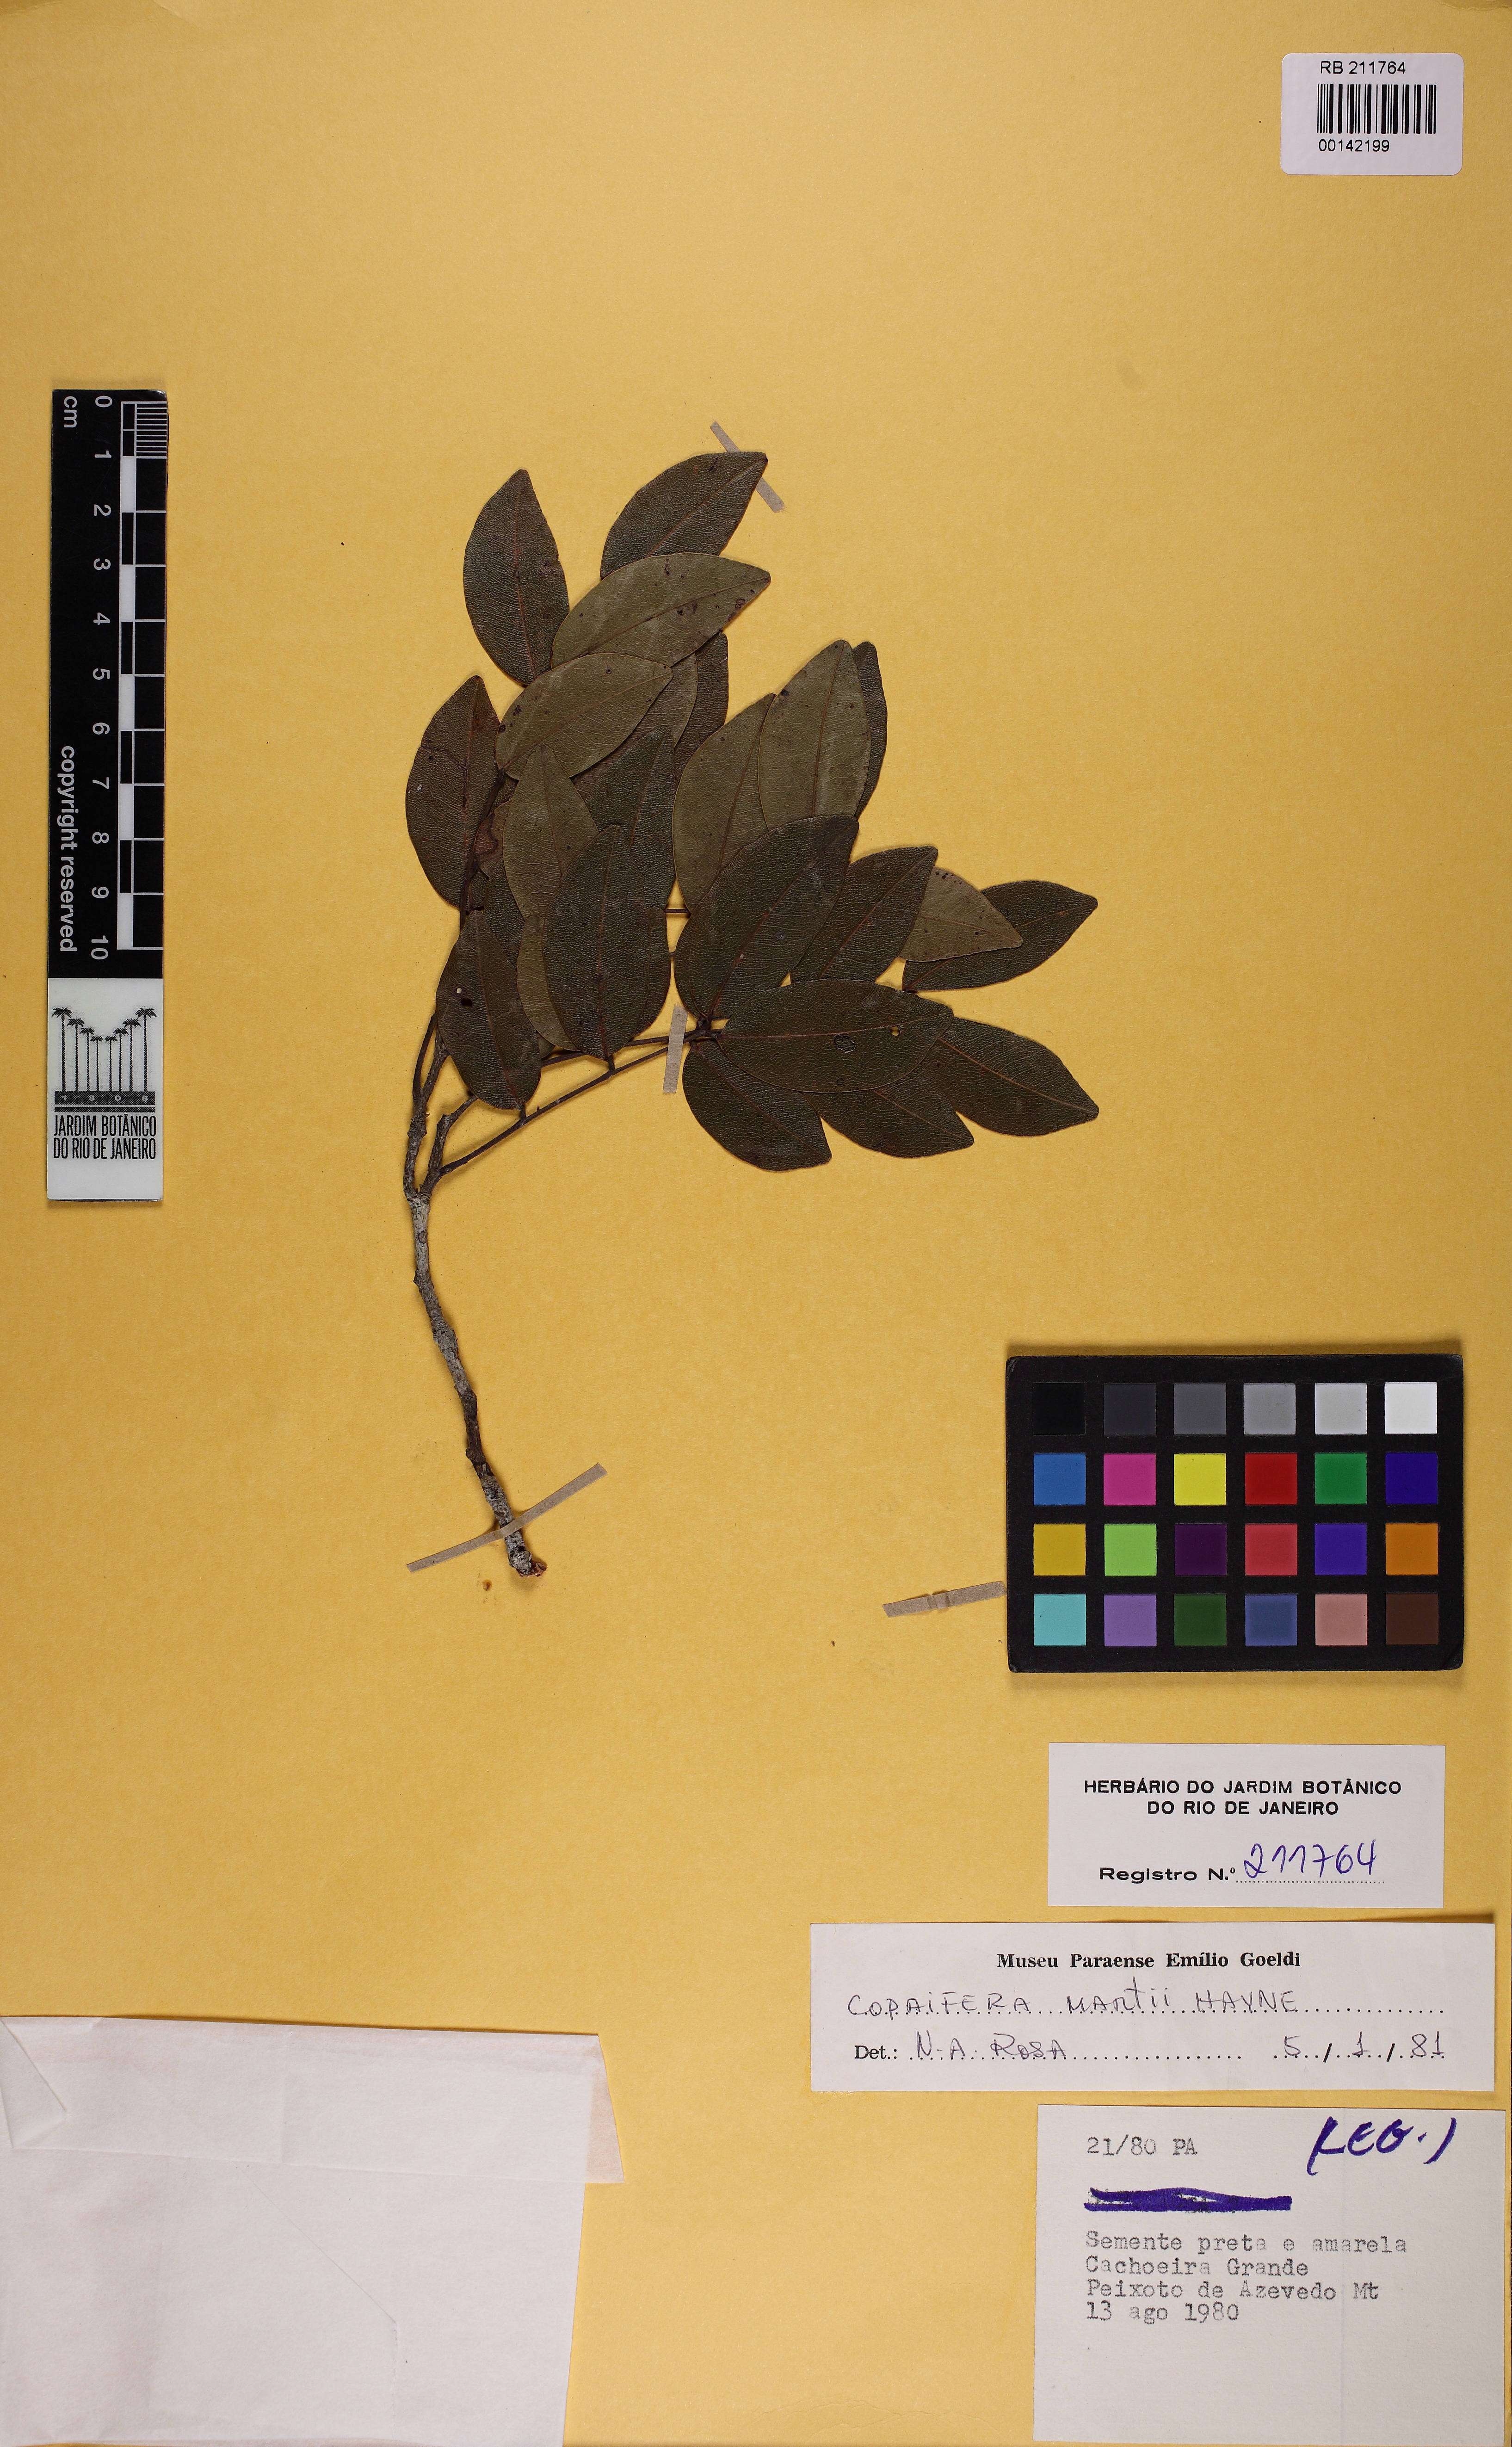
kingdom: Plantae
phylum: Tracheophyta
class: Magnoliopsida
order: Fabales
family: Fabaceae
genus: Copaifera
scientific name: Copaifera martii
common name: Copaiba
